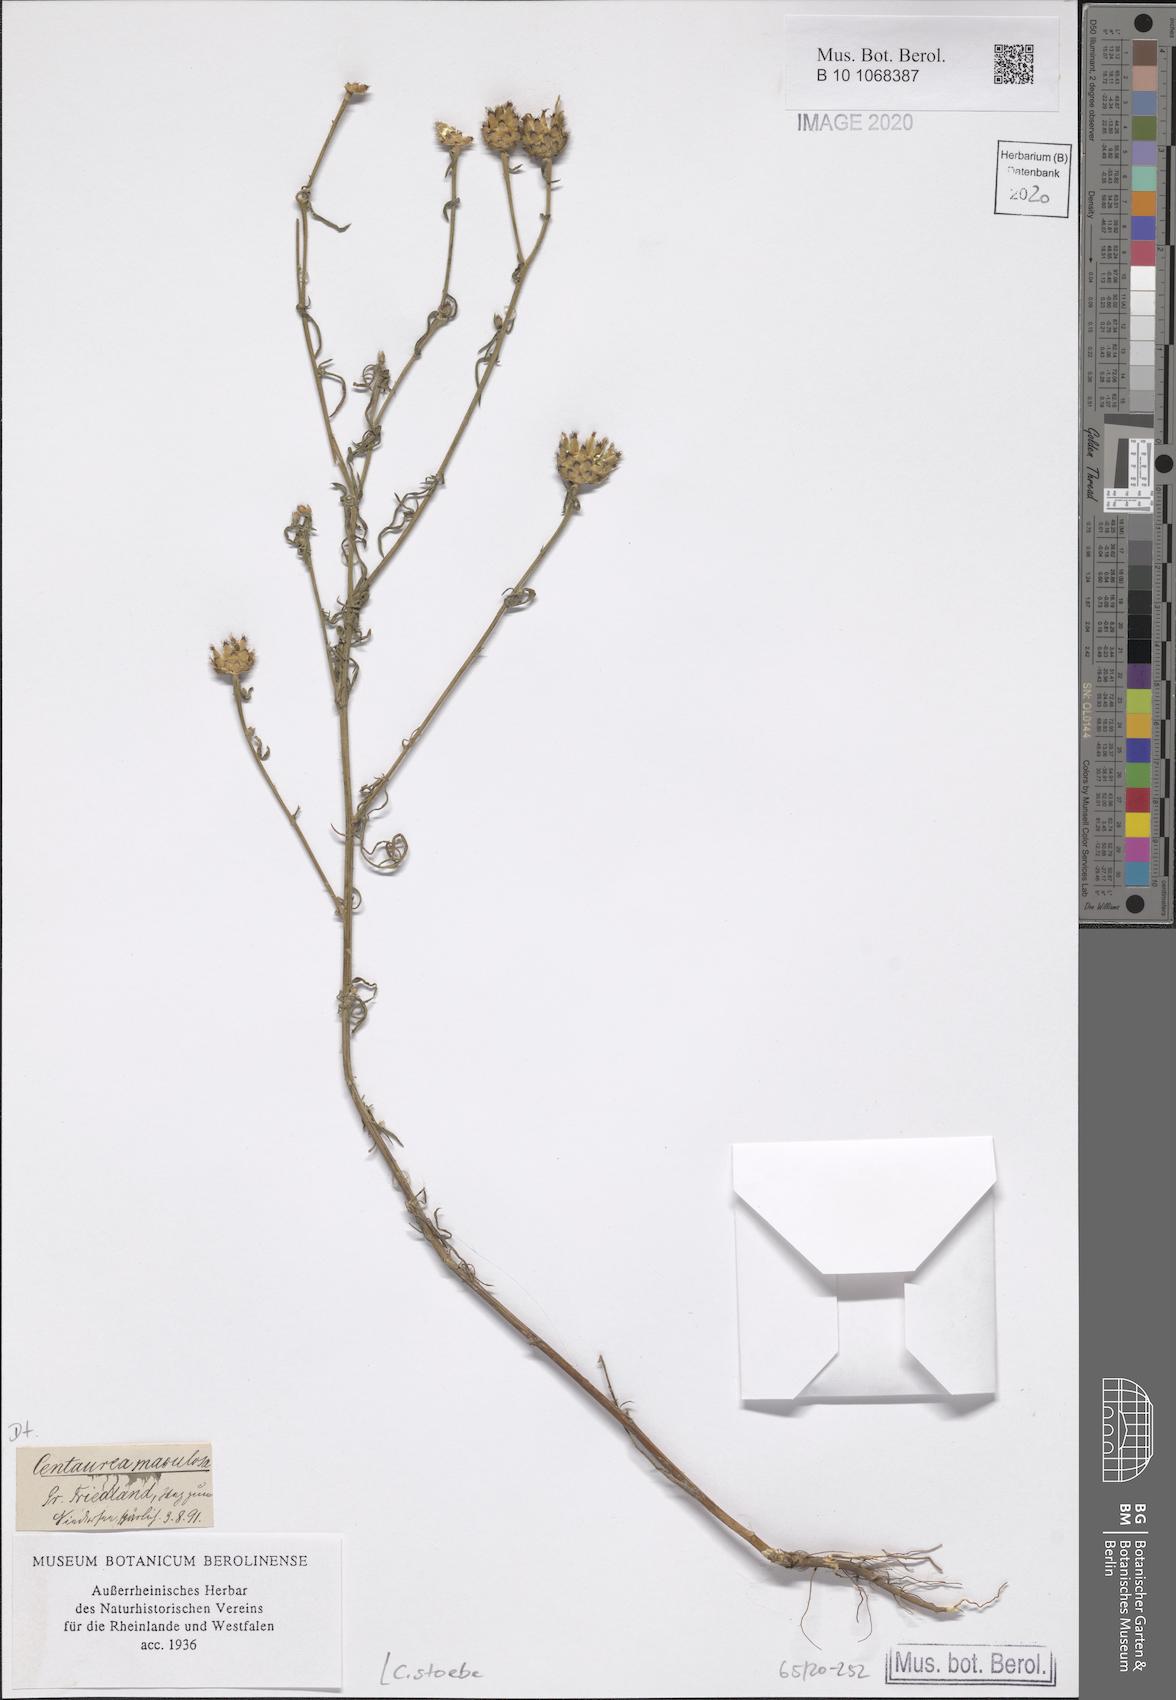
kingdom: Plantae
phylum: Tracheophyta
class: Magnoliopsida
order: Asterales
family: Asteraceae
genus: Centaurea
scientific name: Centaurea stoebe
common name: Spotted knapweed
